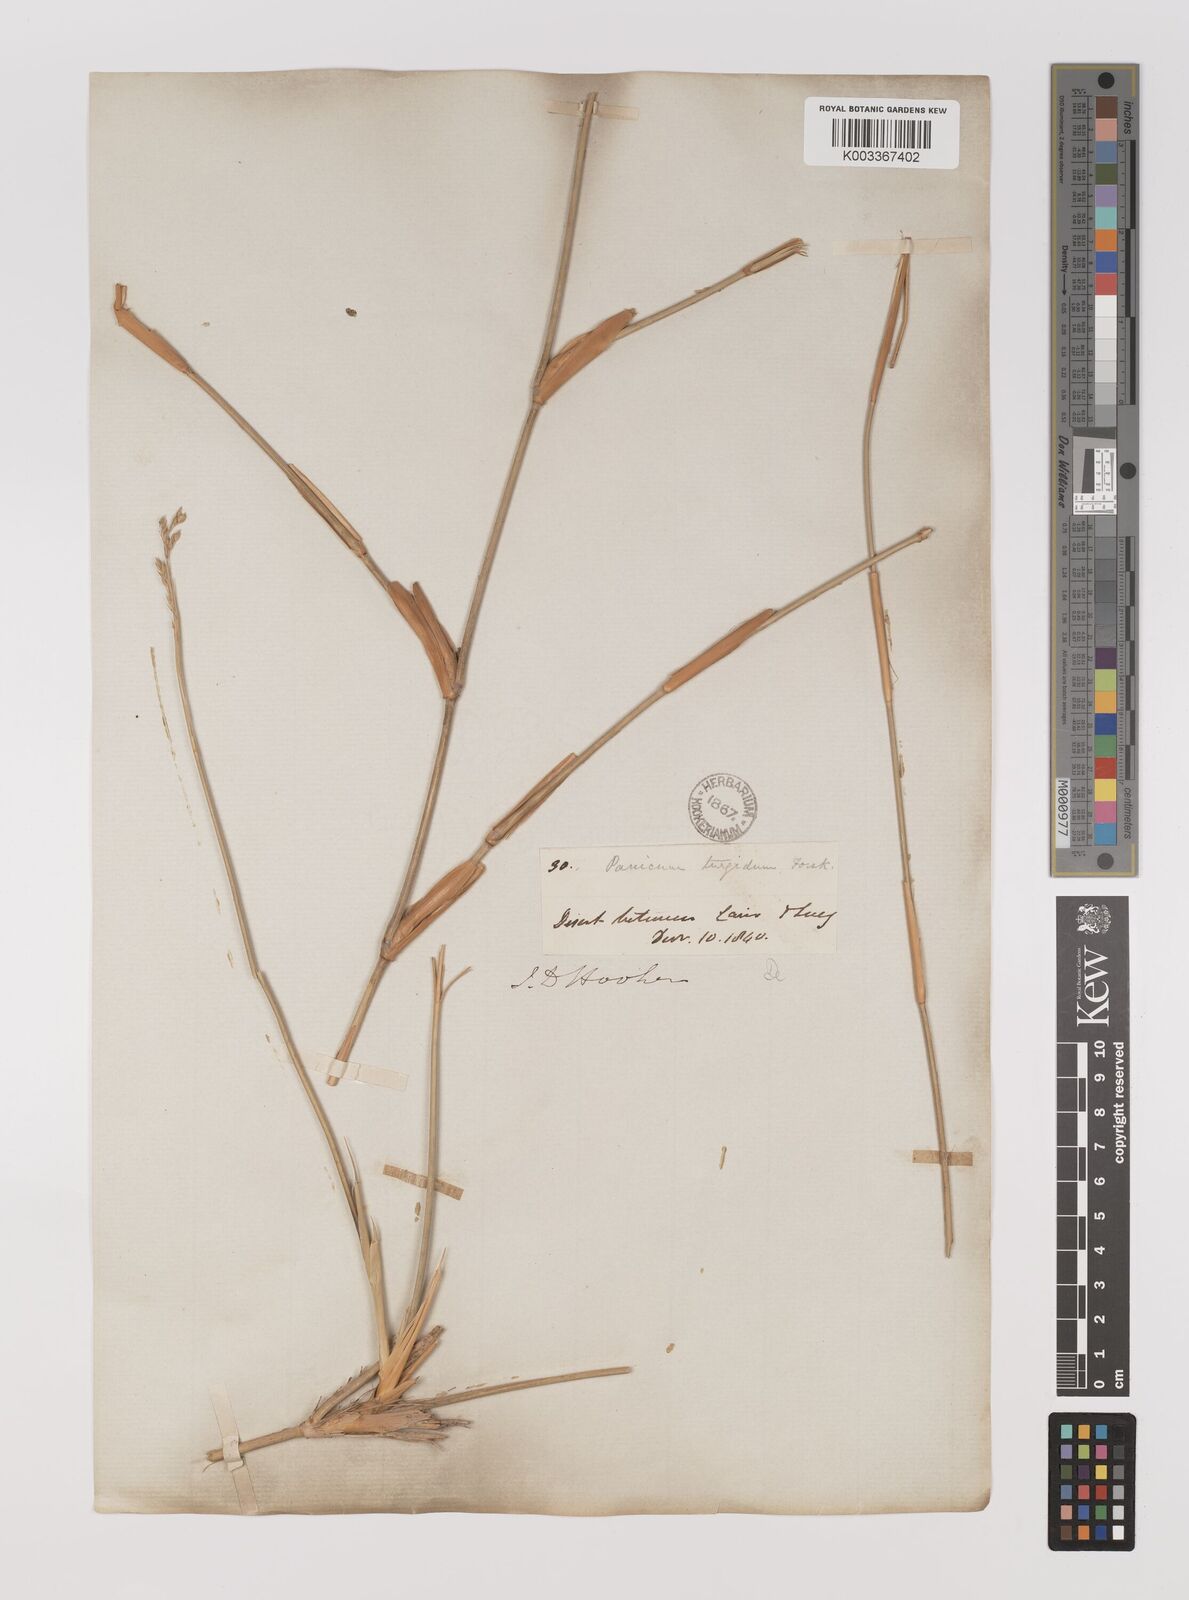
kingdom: Plantae
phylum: Tracheophyta
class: Liliopsida
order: Poales
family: Poaceae
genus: Panicum
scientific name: Panicum turgidum
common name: Desert grass
